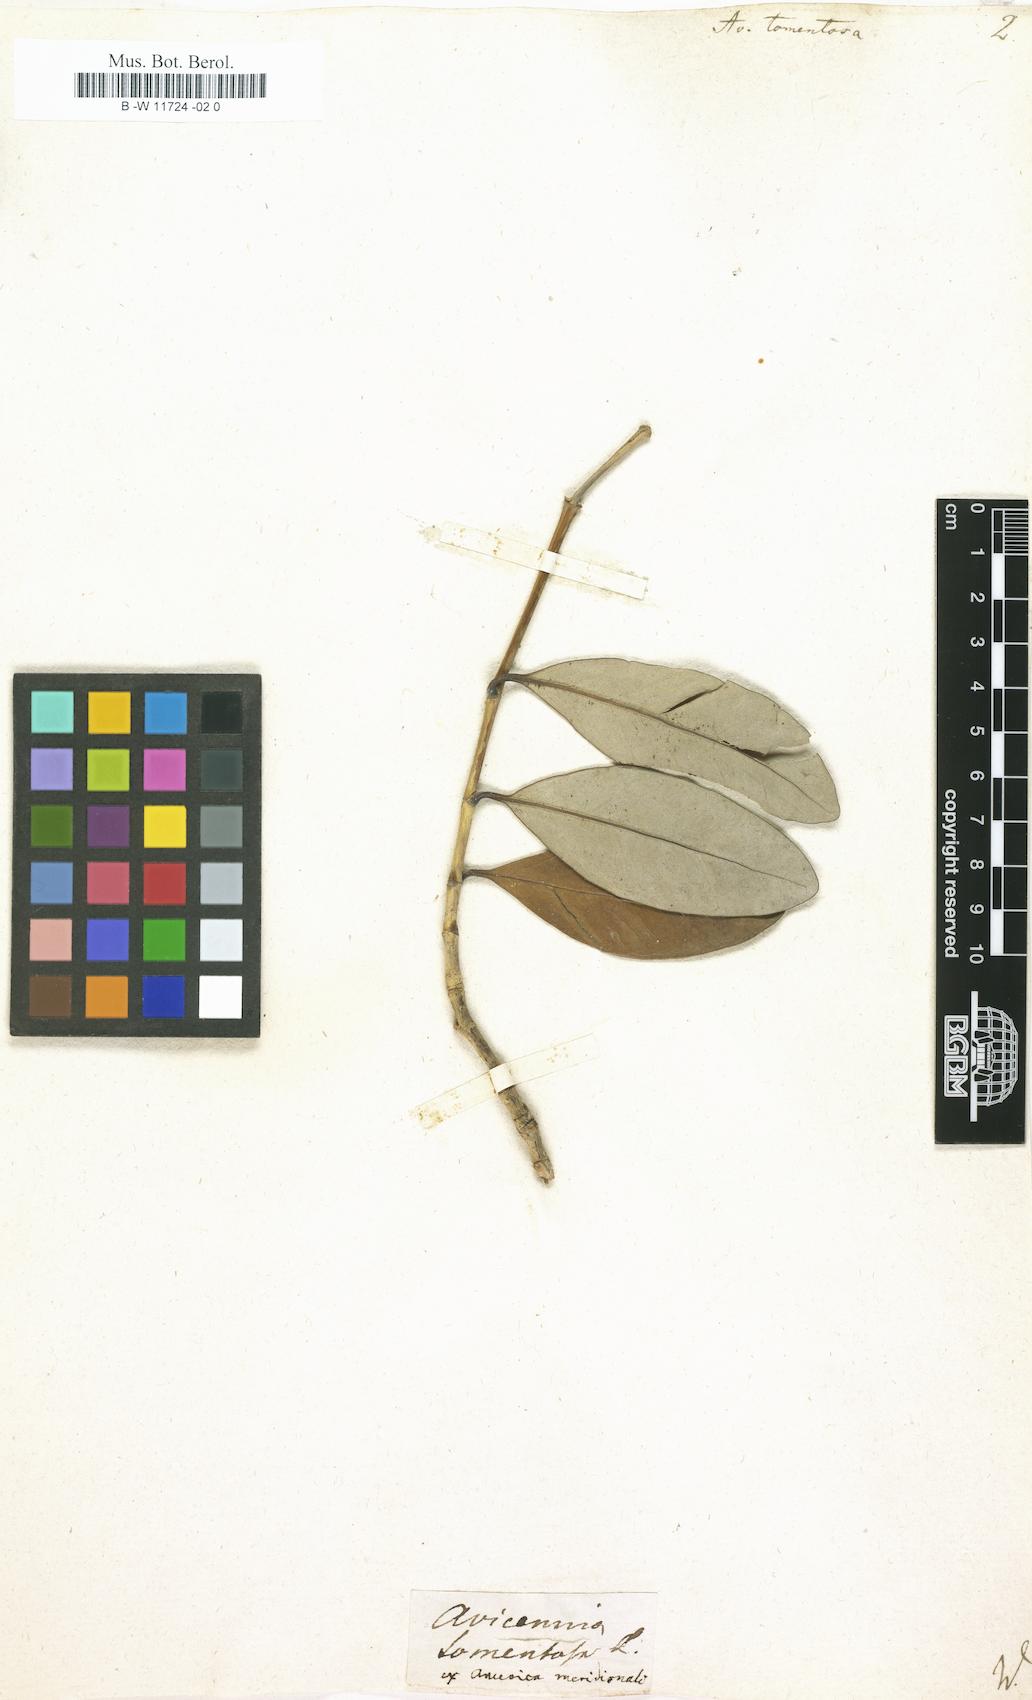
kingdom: Plantae
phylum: Tracheophyta
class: Magnoliopsida
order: Lamiales
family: Acanthaceae
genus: Avicennia
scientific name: Avicennia
